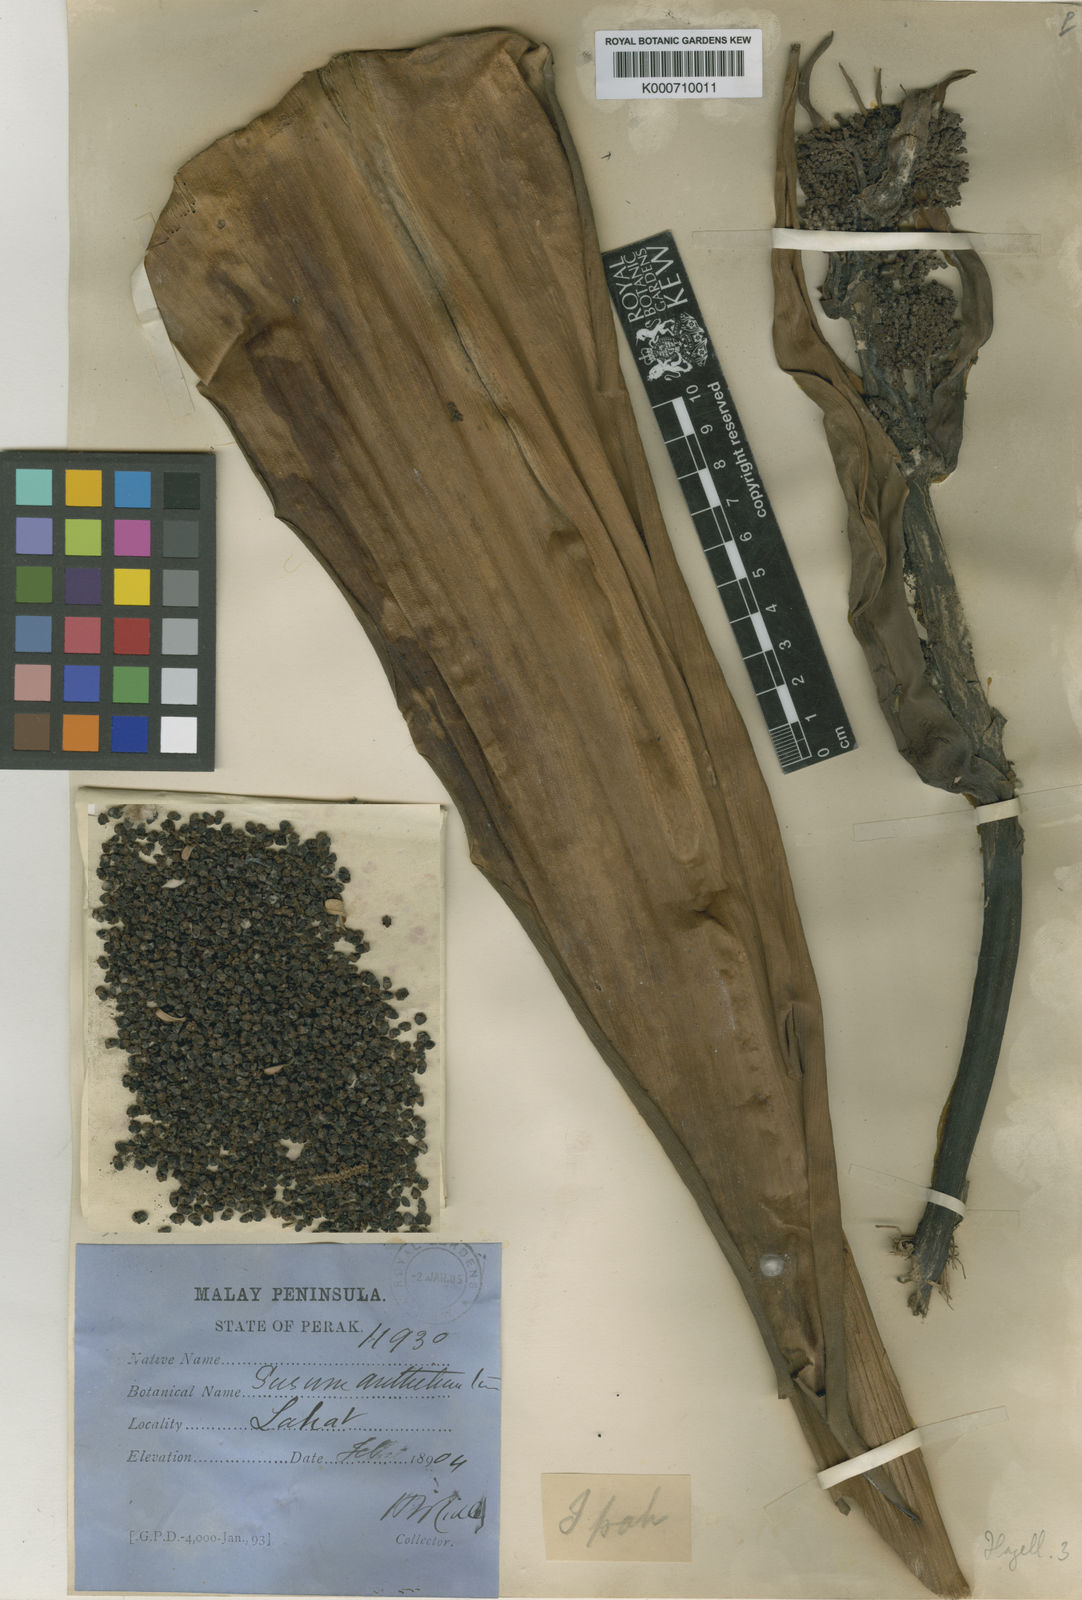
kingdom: Plantae
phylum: Tracheophyta
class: Liliopsida
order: Commelinales
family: Hanguanaceae
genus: Hanguana
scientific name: Hanguana malayana
